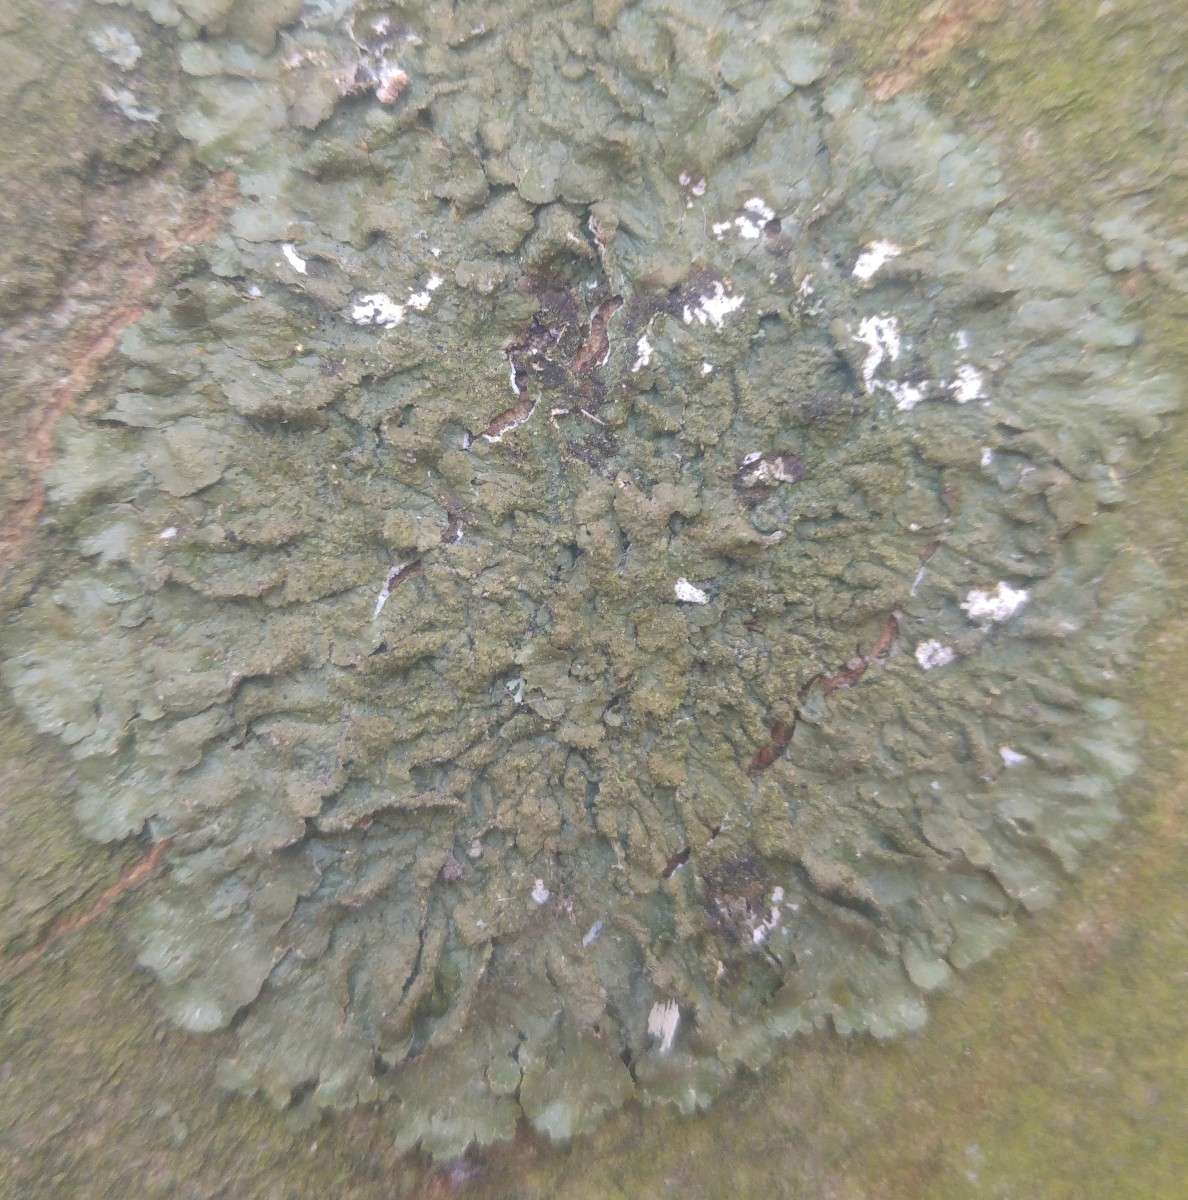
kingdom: Fungi
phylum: Ascomycota
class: Lecanoromycetes
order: Lecanorales
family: Parmeliaceae
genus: Melanelixia
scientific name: Melanelixia subaurifera
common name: guldpudret skållav
